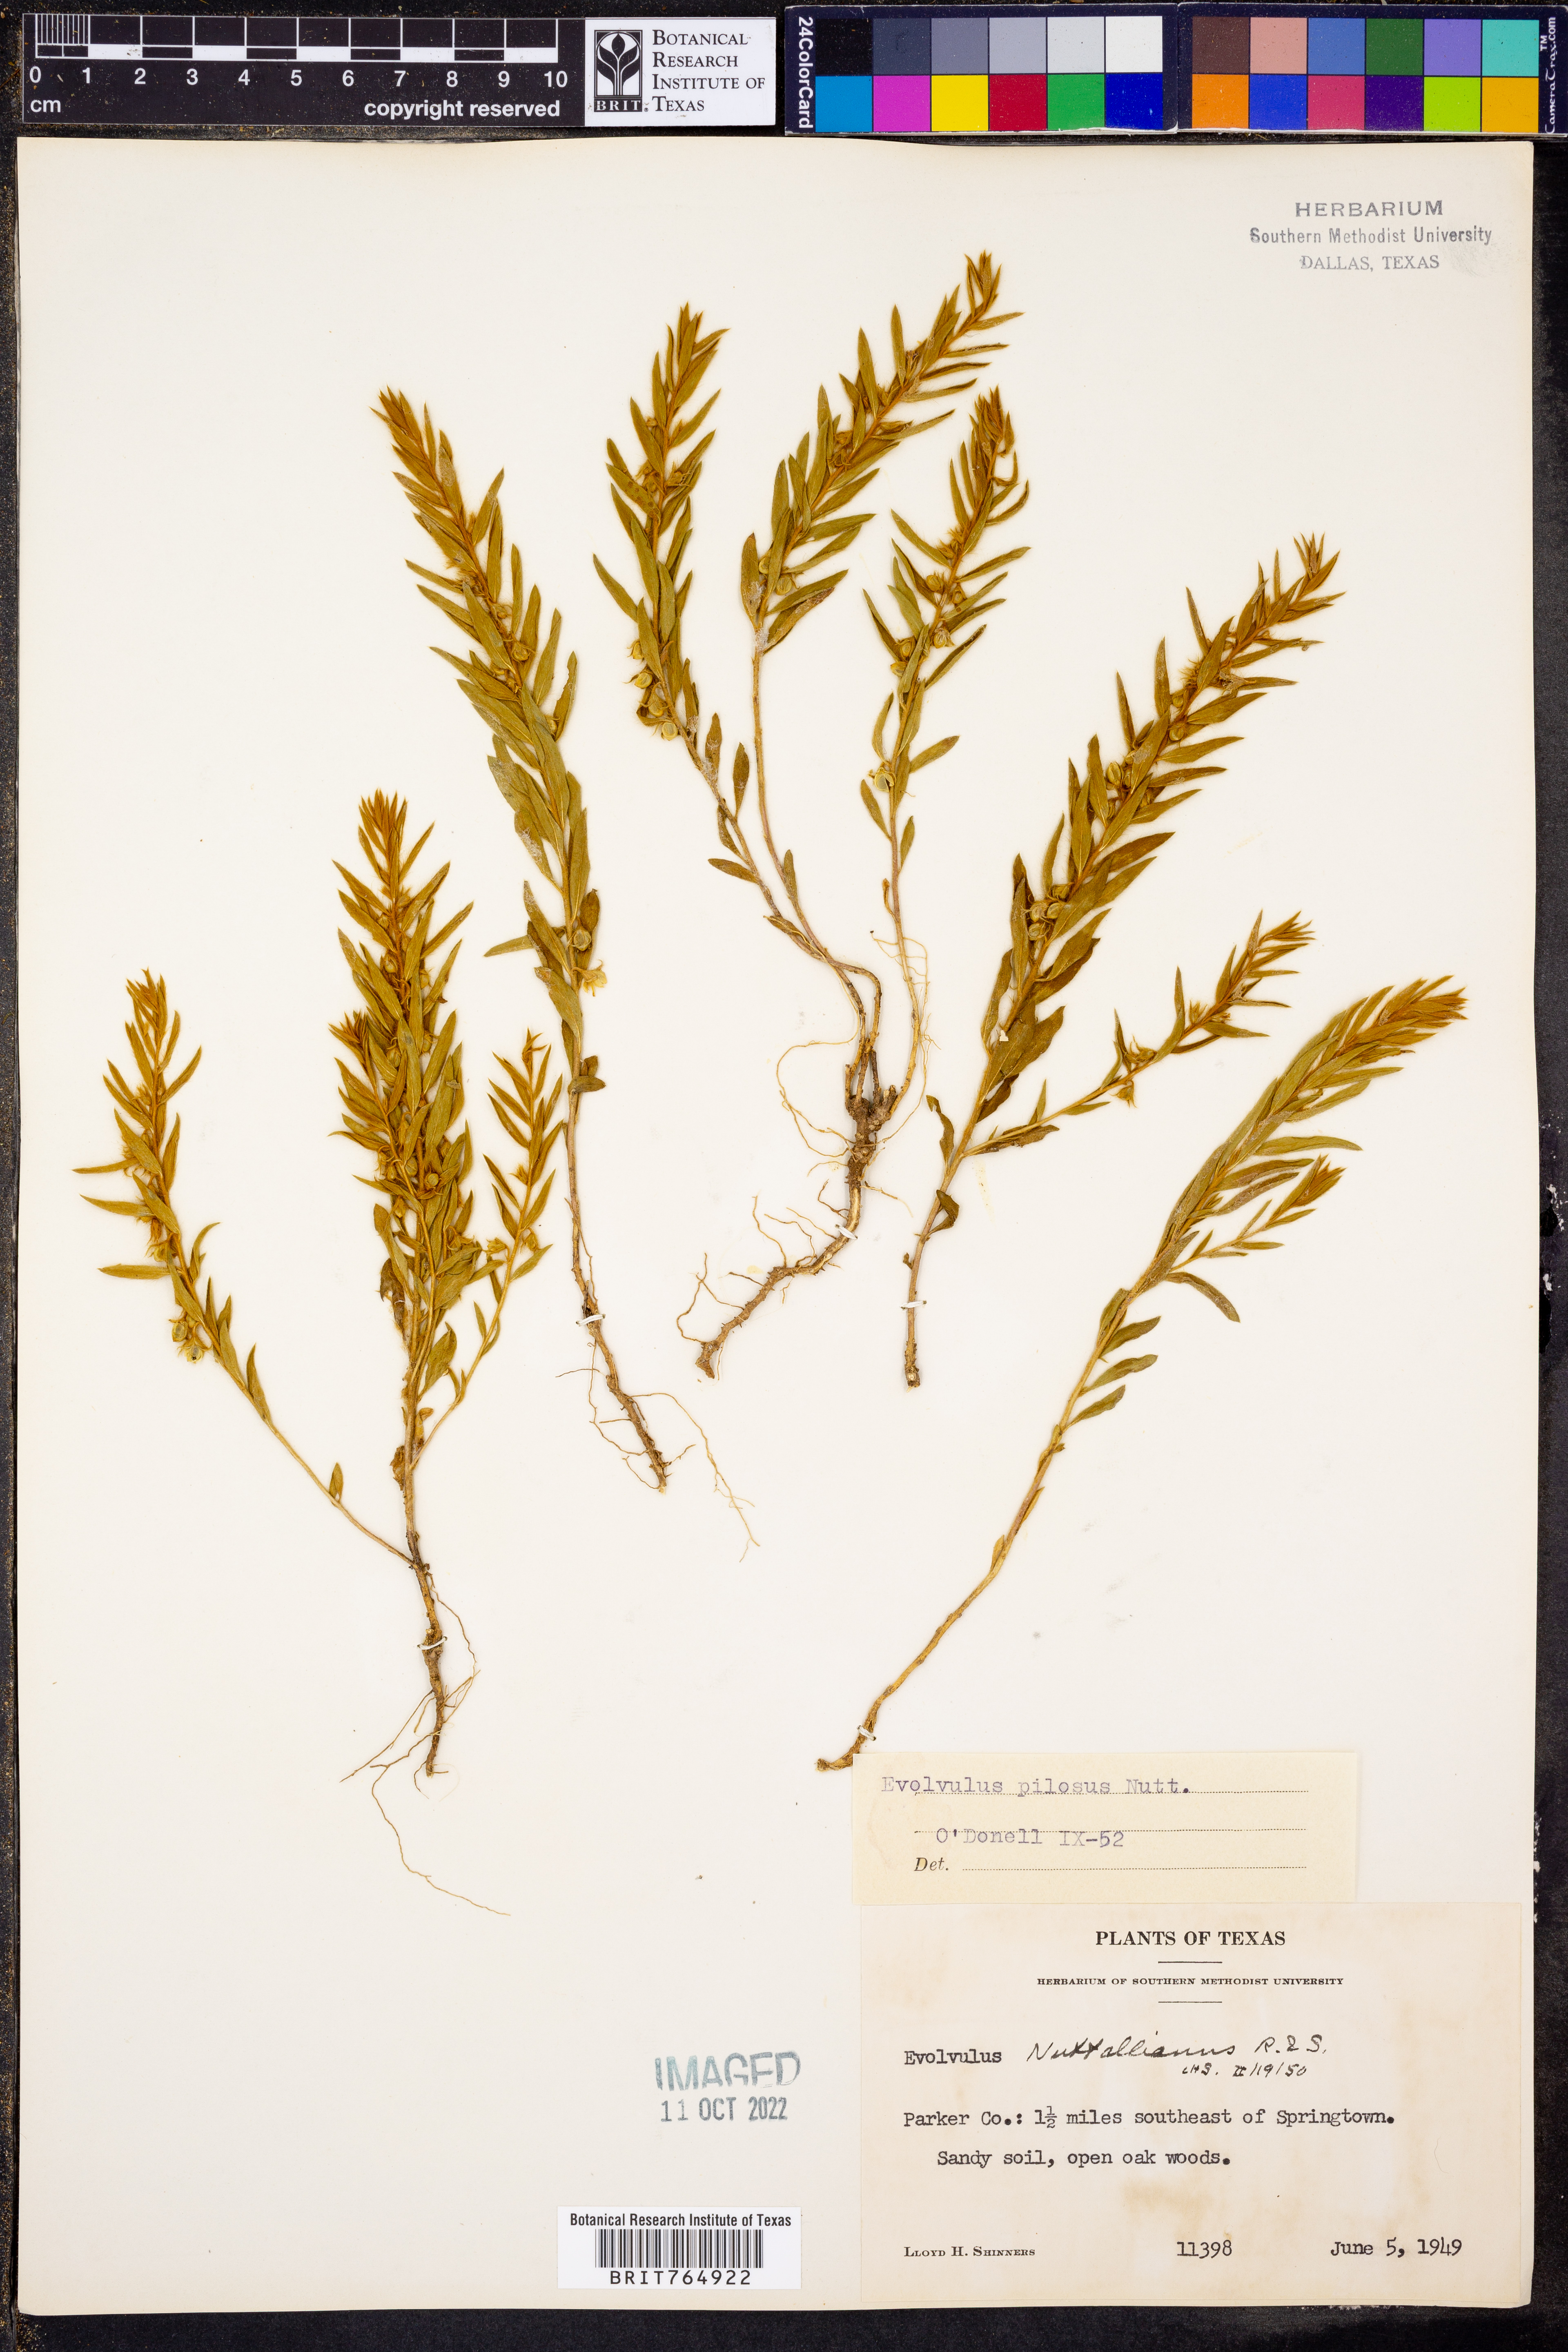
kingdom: Plantae
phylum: Tracheophyta
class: Magnoliopsida
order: Solanales
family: Convolvulaceae
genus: Evolvulus
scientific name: Evolvulus nuttallianus
